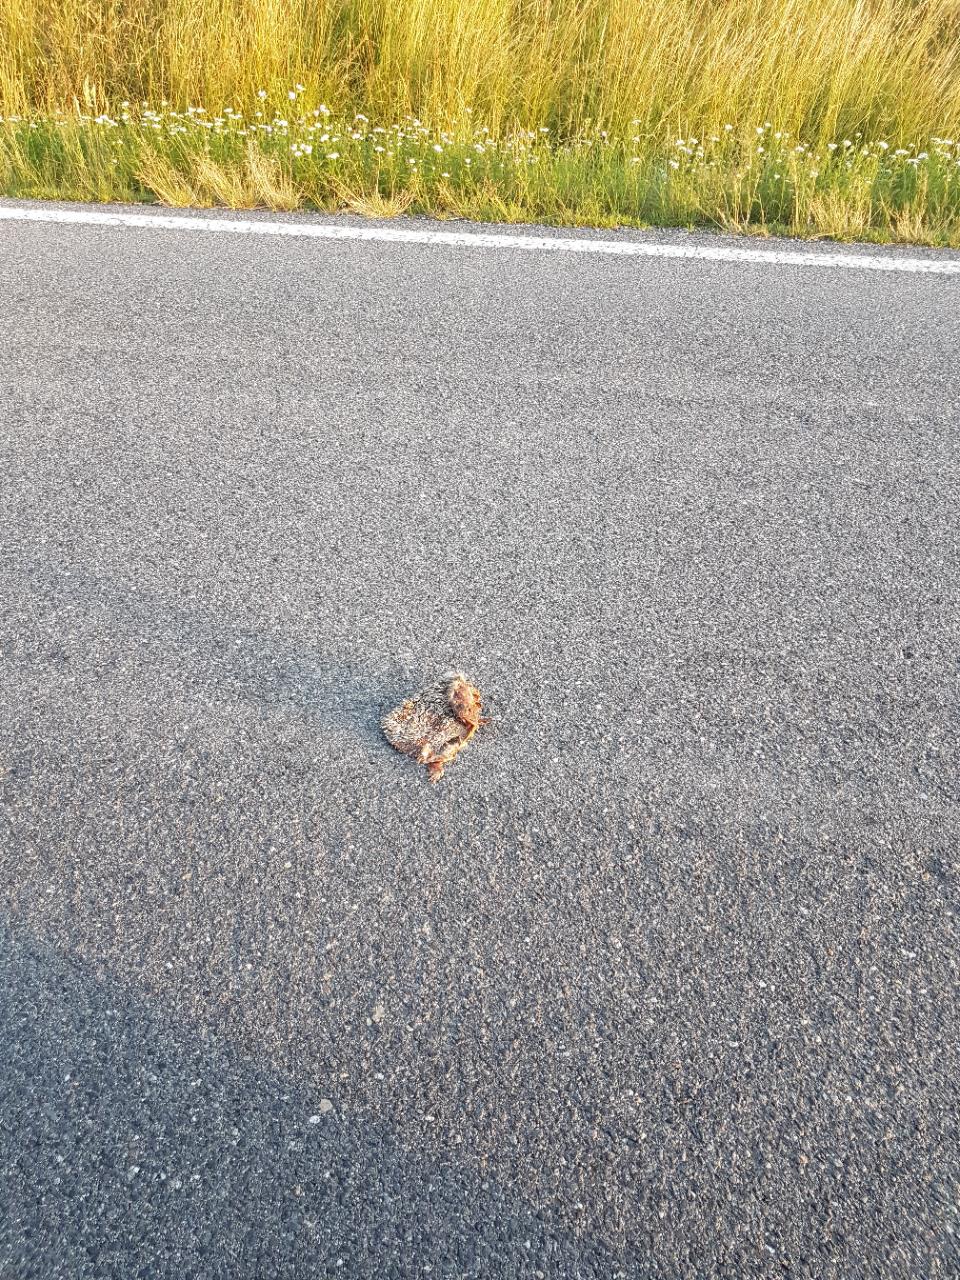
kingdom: Animalia
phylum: Chordata
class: Mammalia
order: Erinaceomorpha
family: Erinaceidae
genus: Erinaceus
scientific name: Erinaceus
